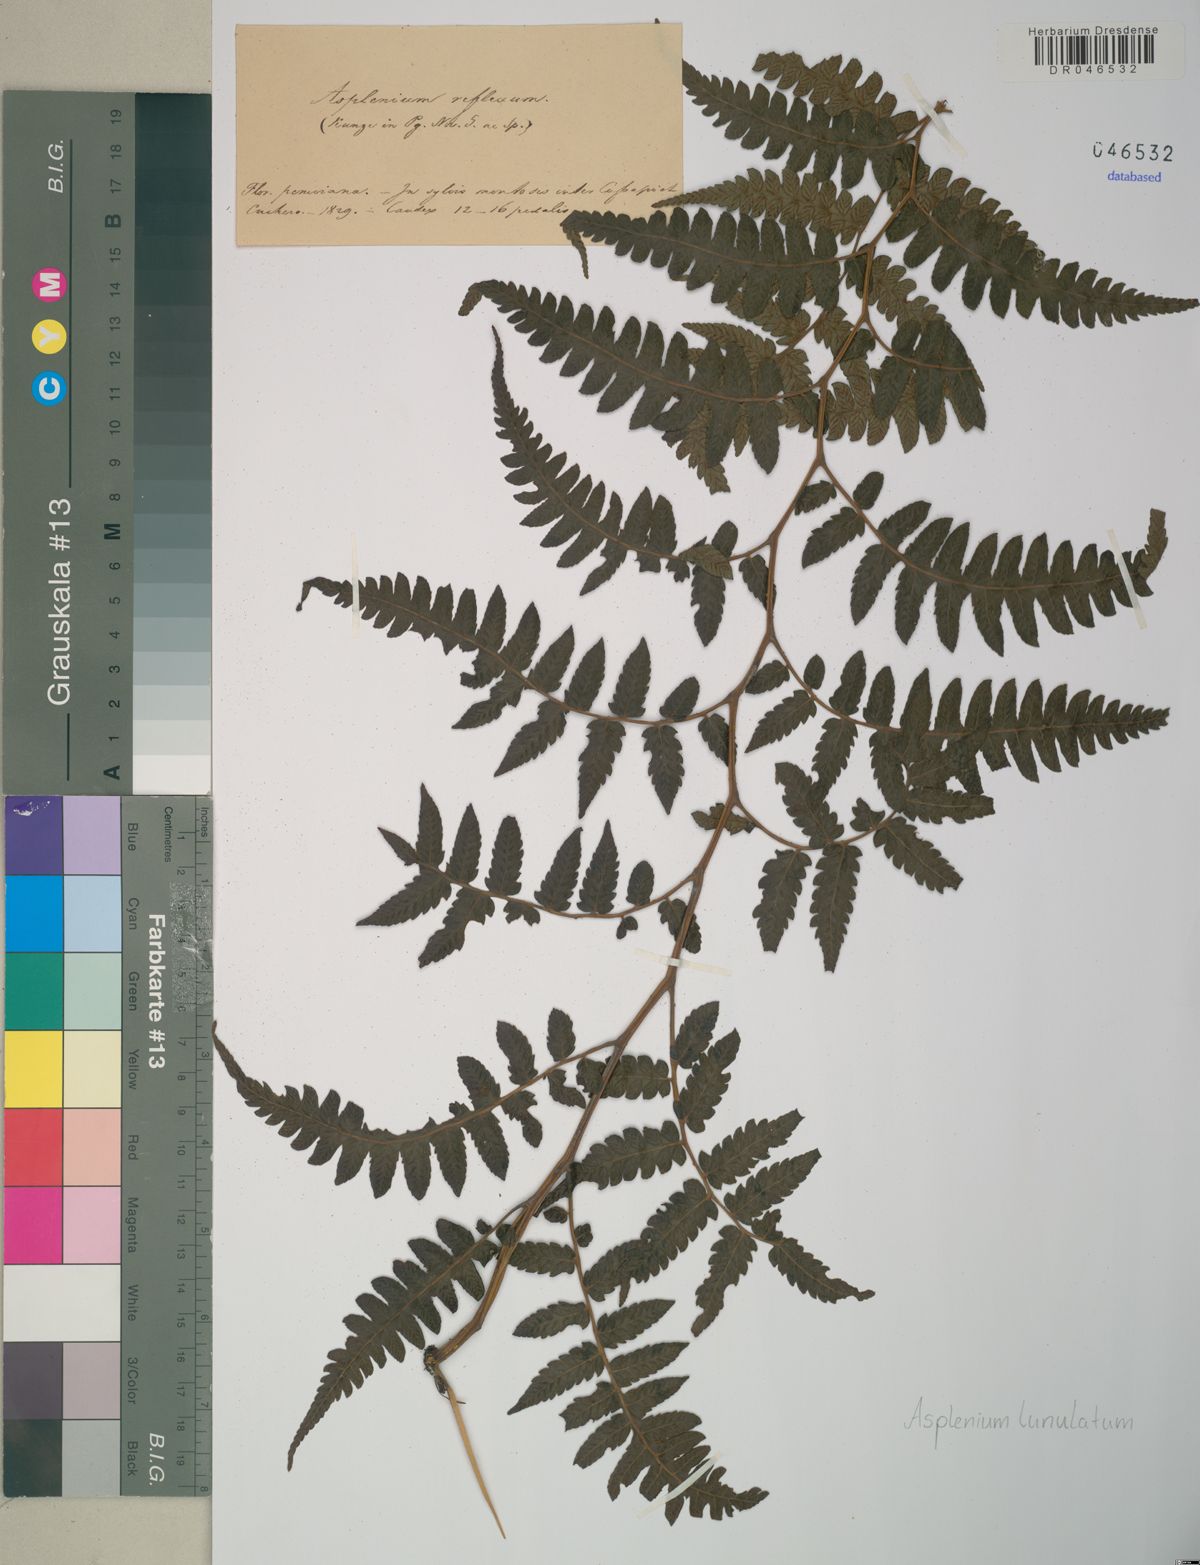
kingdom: Plantae
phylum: Tracheophyta
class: Polypodiopsida
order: Polypodiales
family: Athyriaceae
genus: Diplazium
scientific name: Diplazium flexuosum
